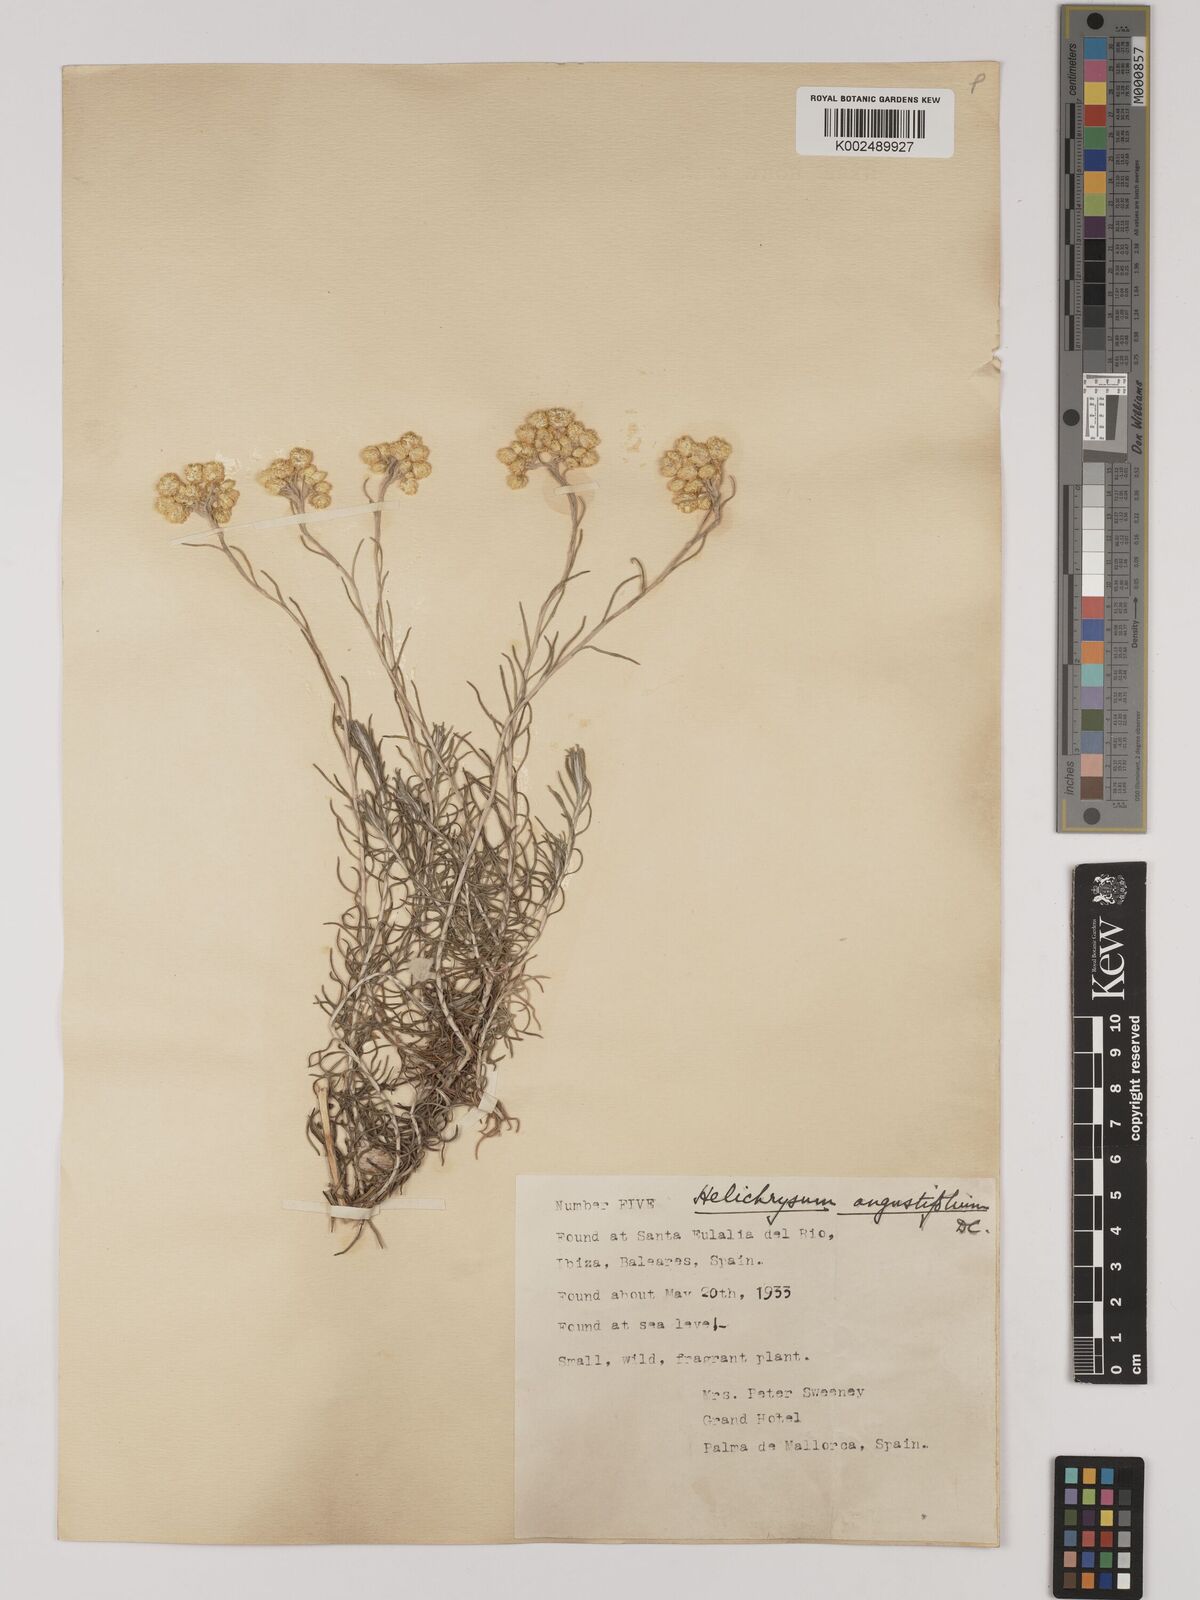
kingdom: Plantae
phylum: Tracheophyta
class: Magnoliopsida
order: Asterales
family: Asteraceae
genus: Helichrysum
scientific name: Helichrysum
